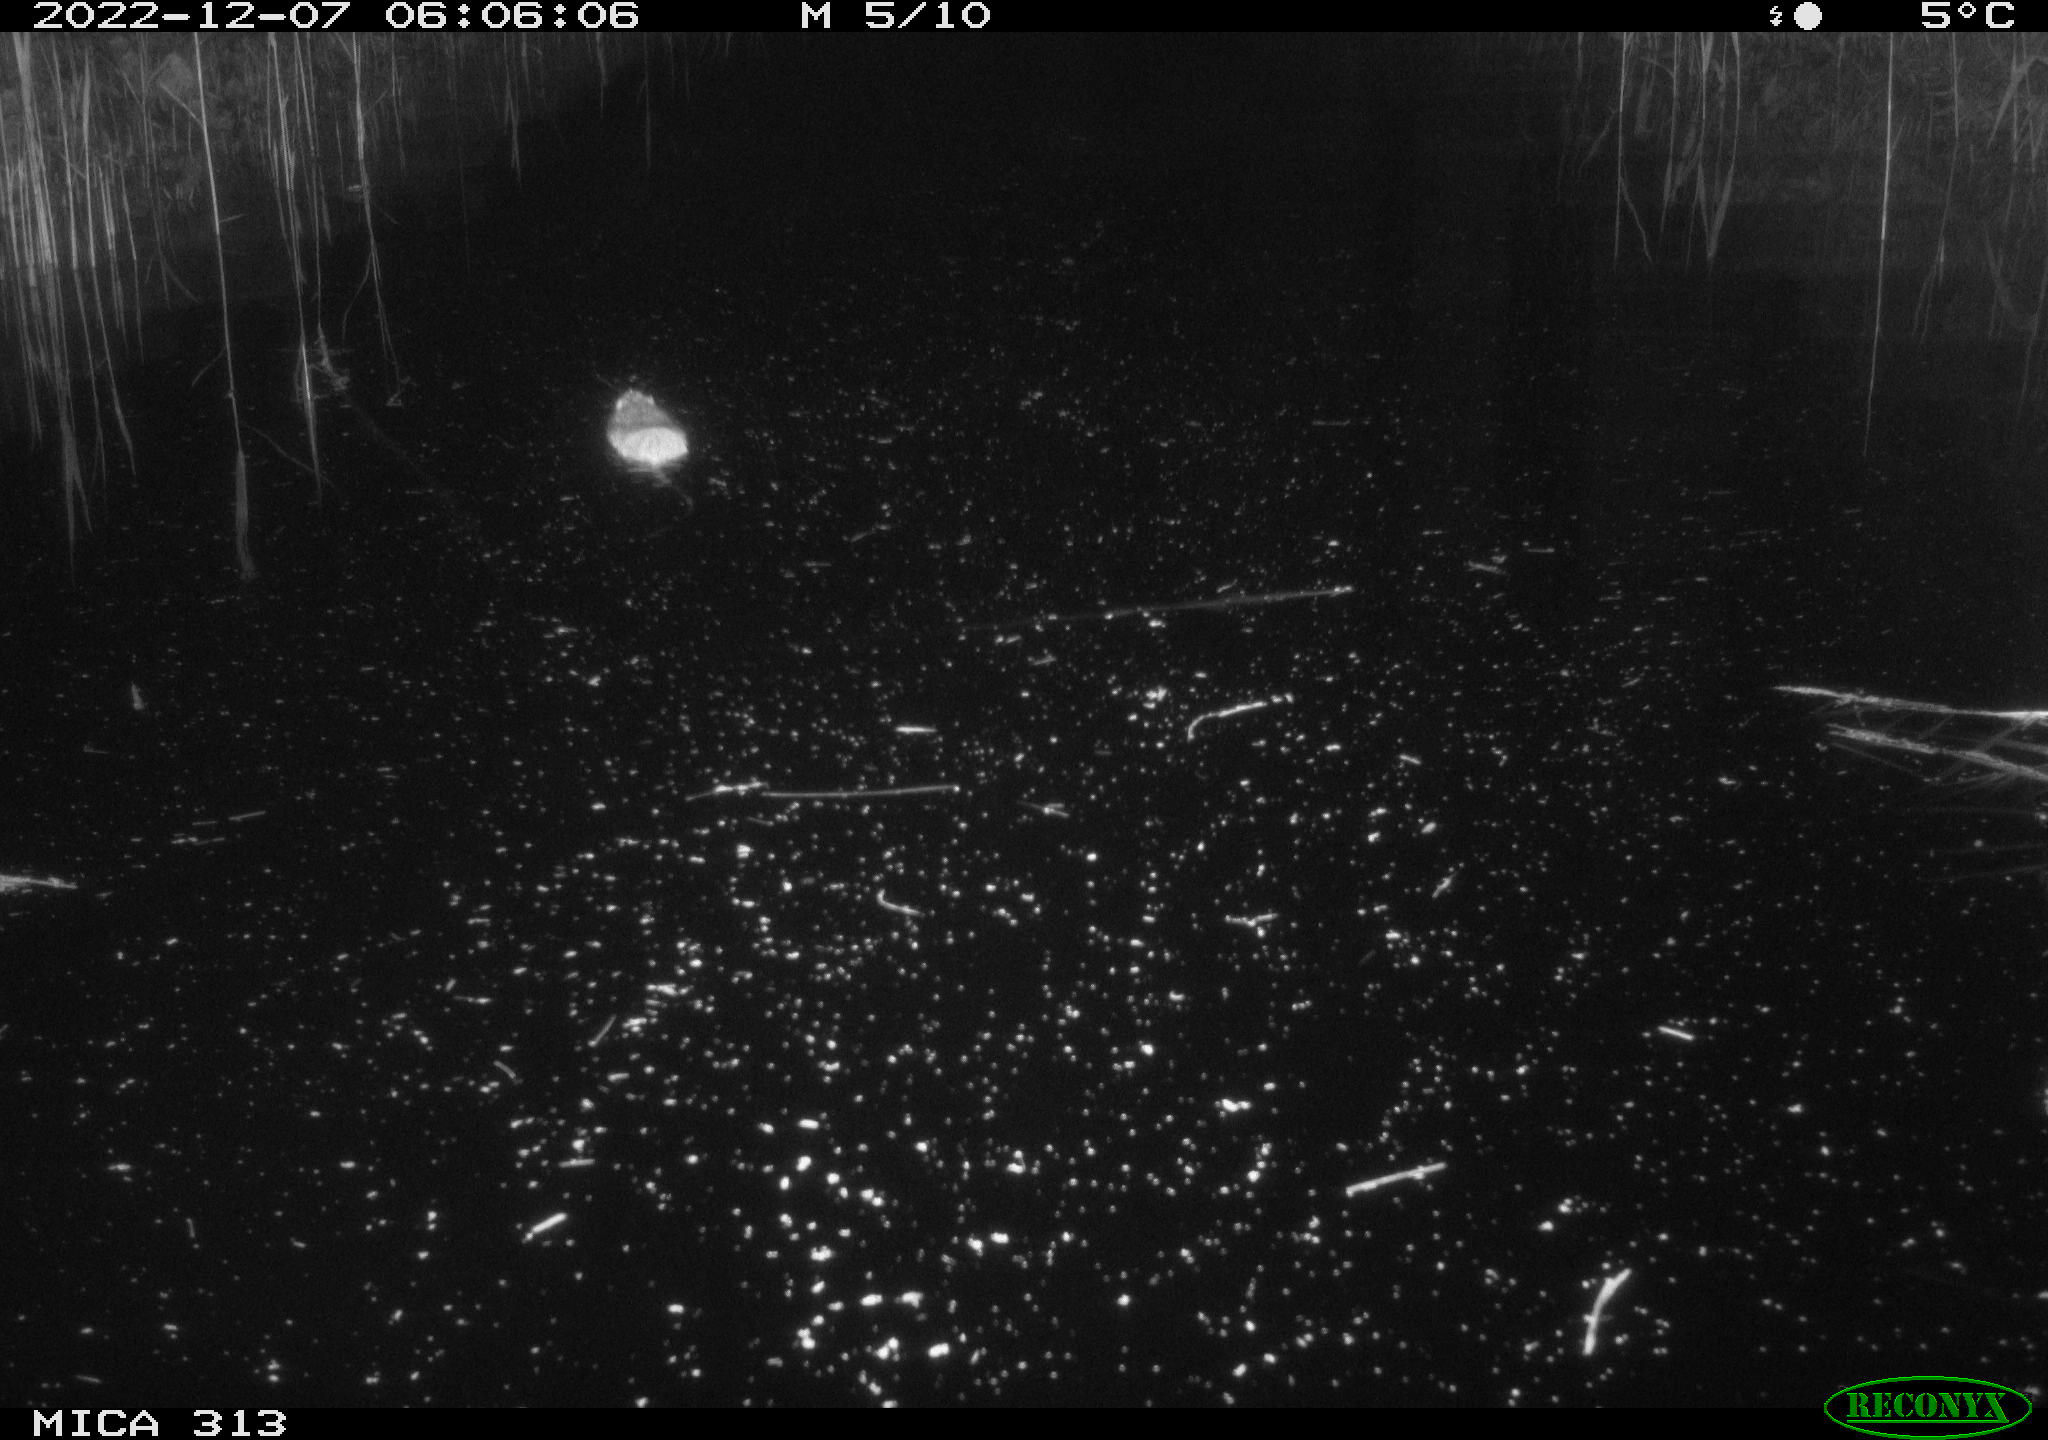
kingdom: Animalia
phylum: Chordata
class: Mammalia
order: Rodentia
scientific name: Rodentia
